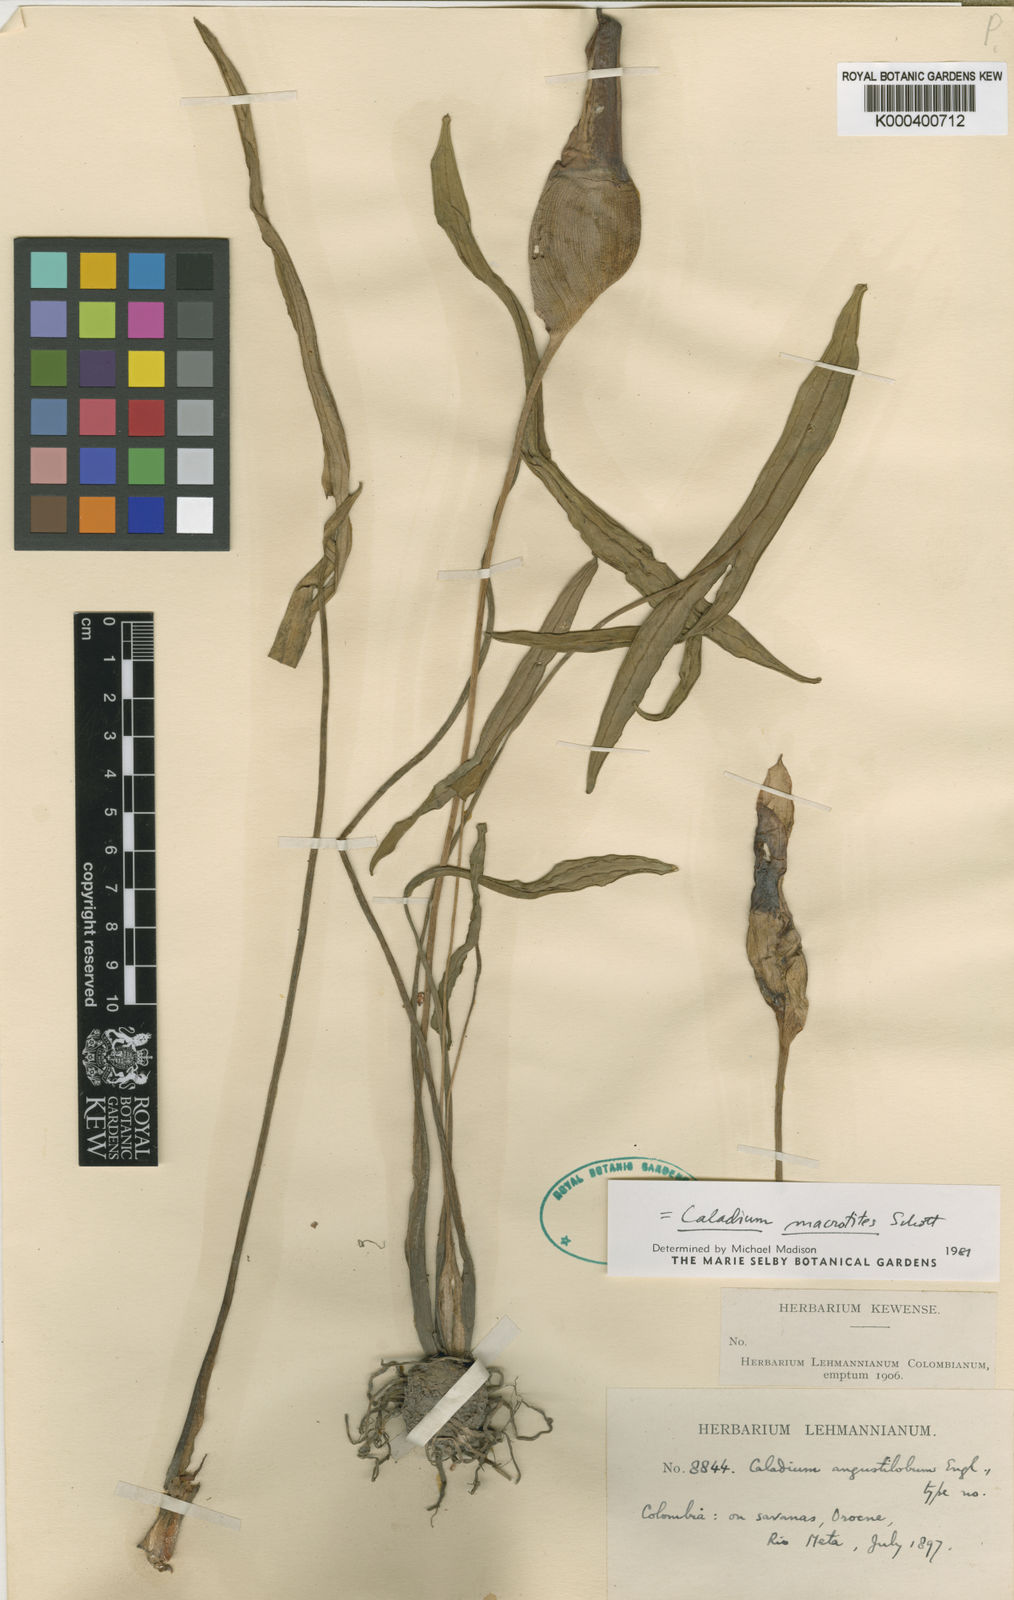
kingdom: Plantae
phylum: Tracheophyta
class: Liliopsida
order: Alismatales
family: Araceae
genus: Caladium
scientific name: Caladium macrotites
